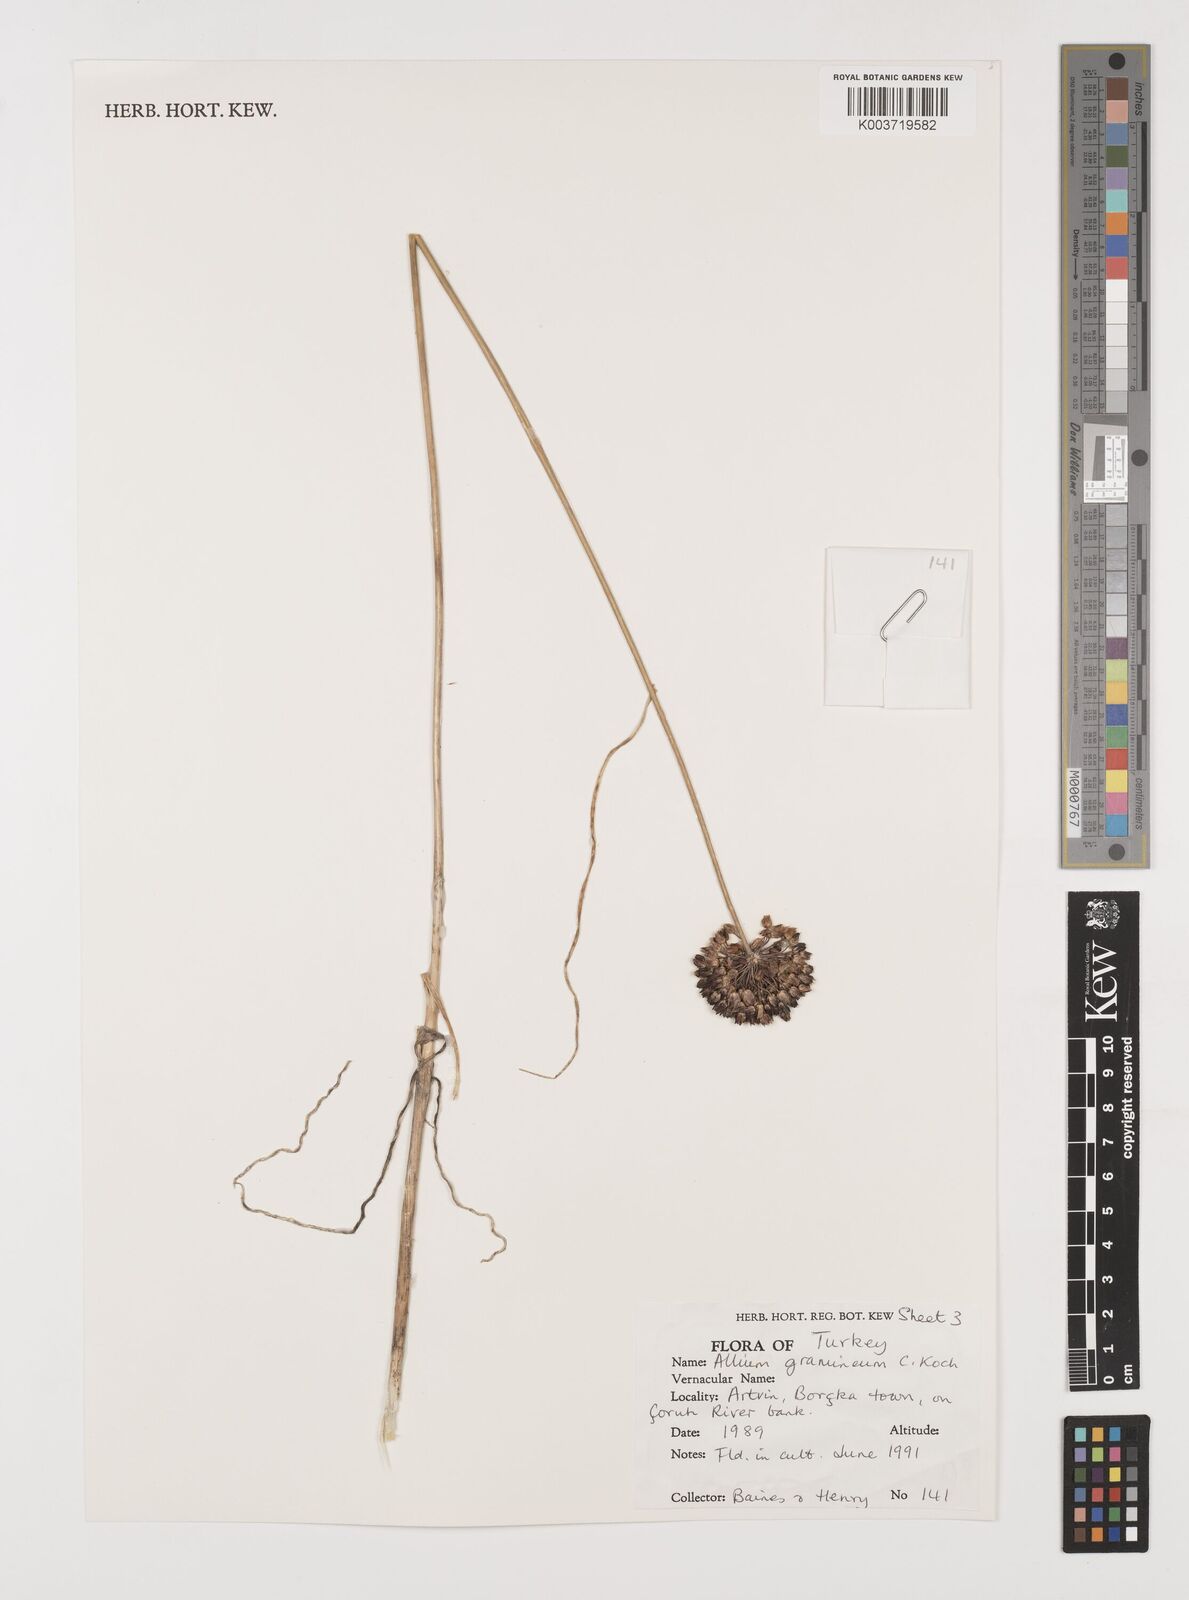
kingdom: Plantae
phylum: Tracheophyta
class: Liliopsida
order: Asparagales
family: Amaryllidaceae
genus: Allium
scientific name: Allium gramineum
